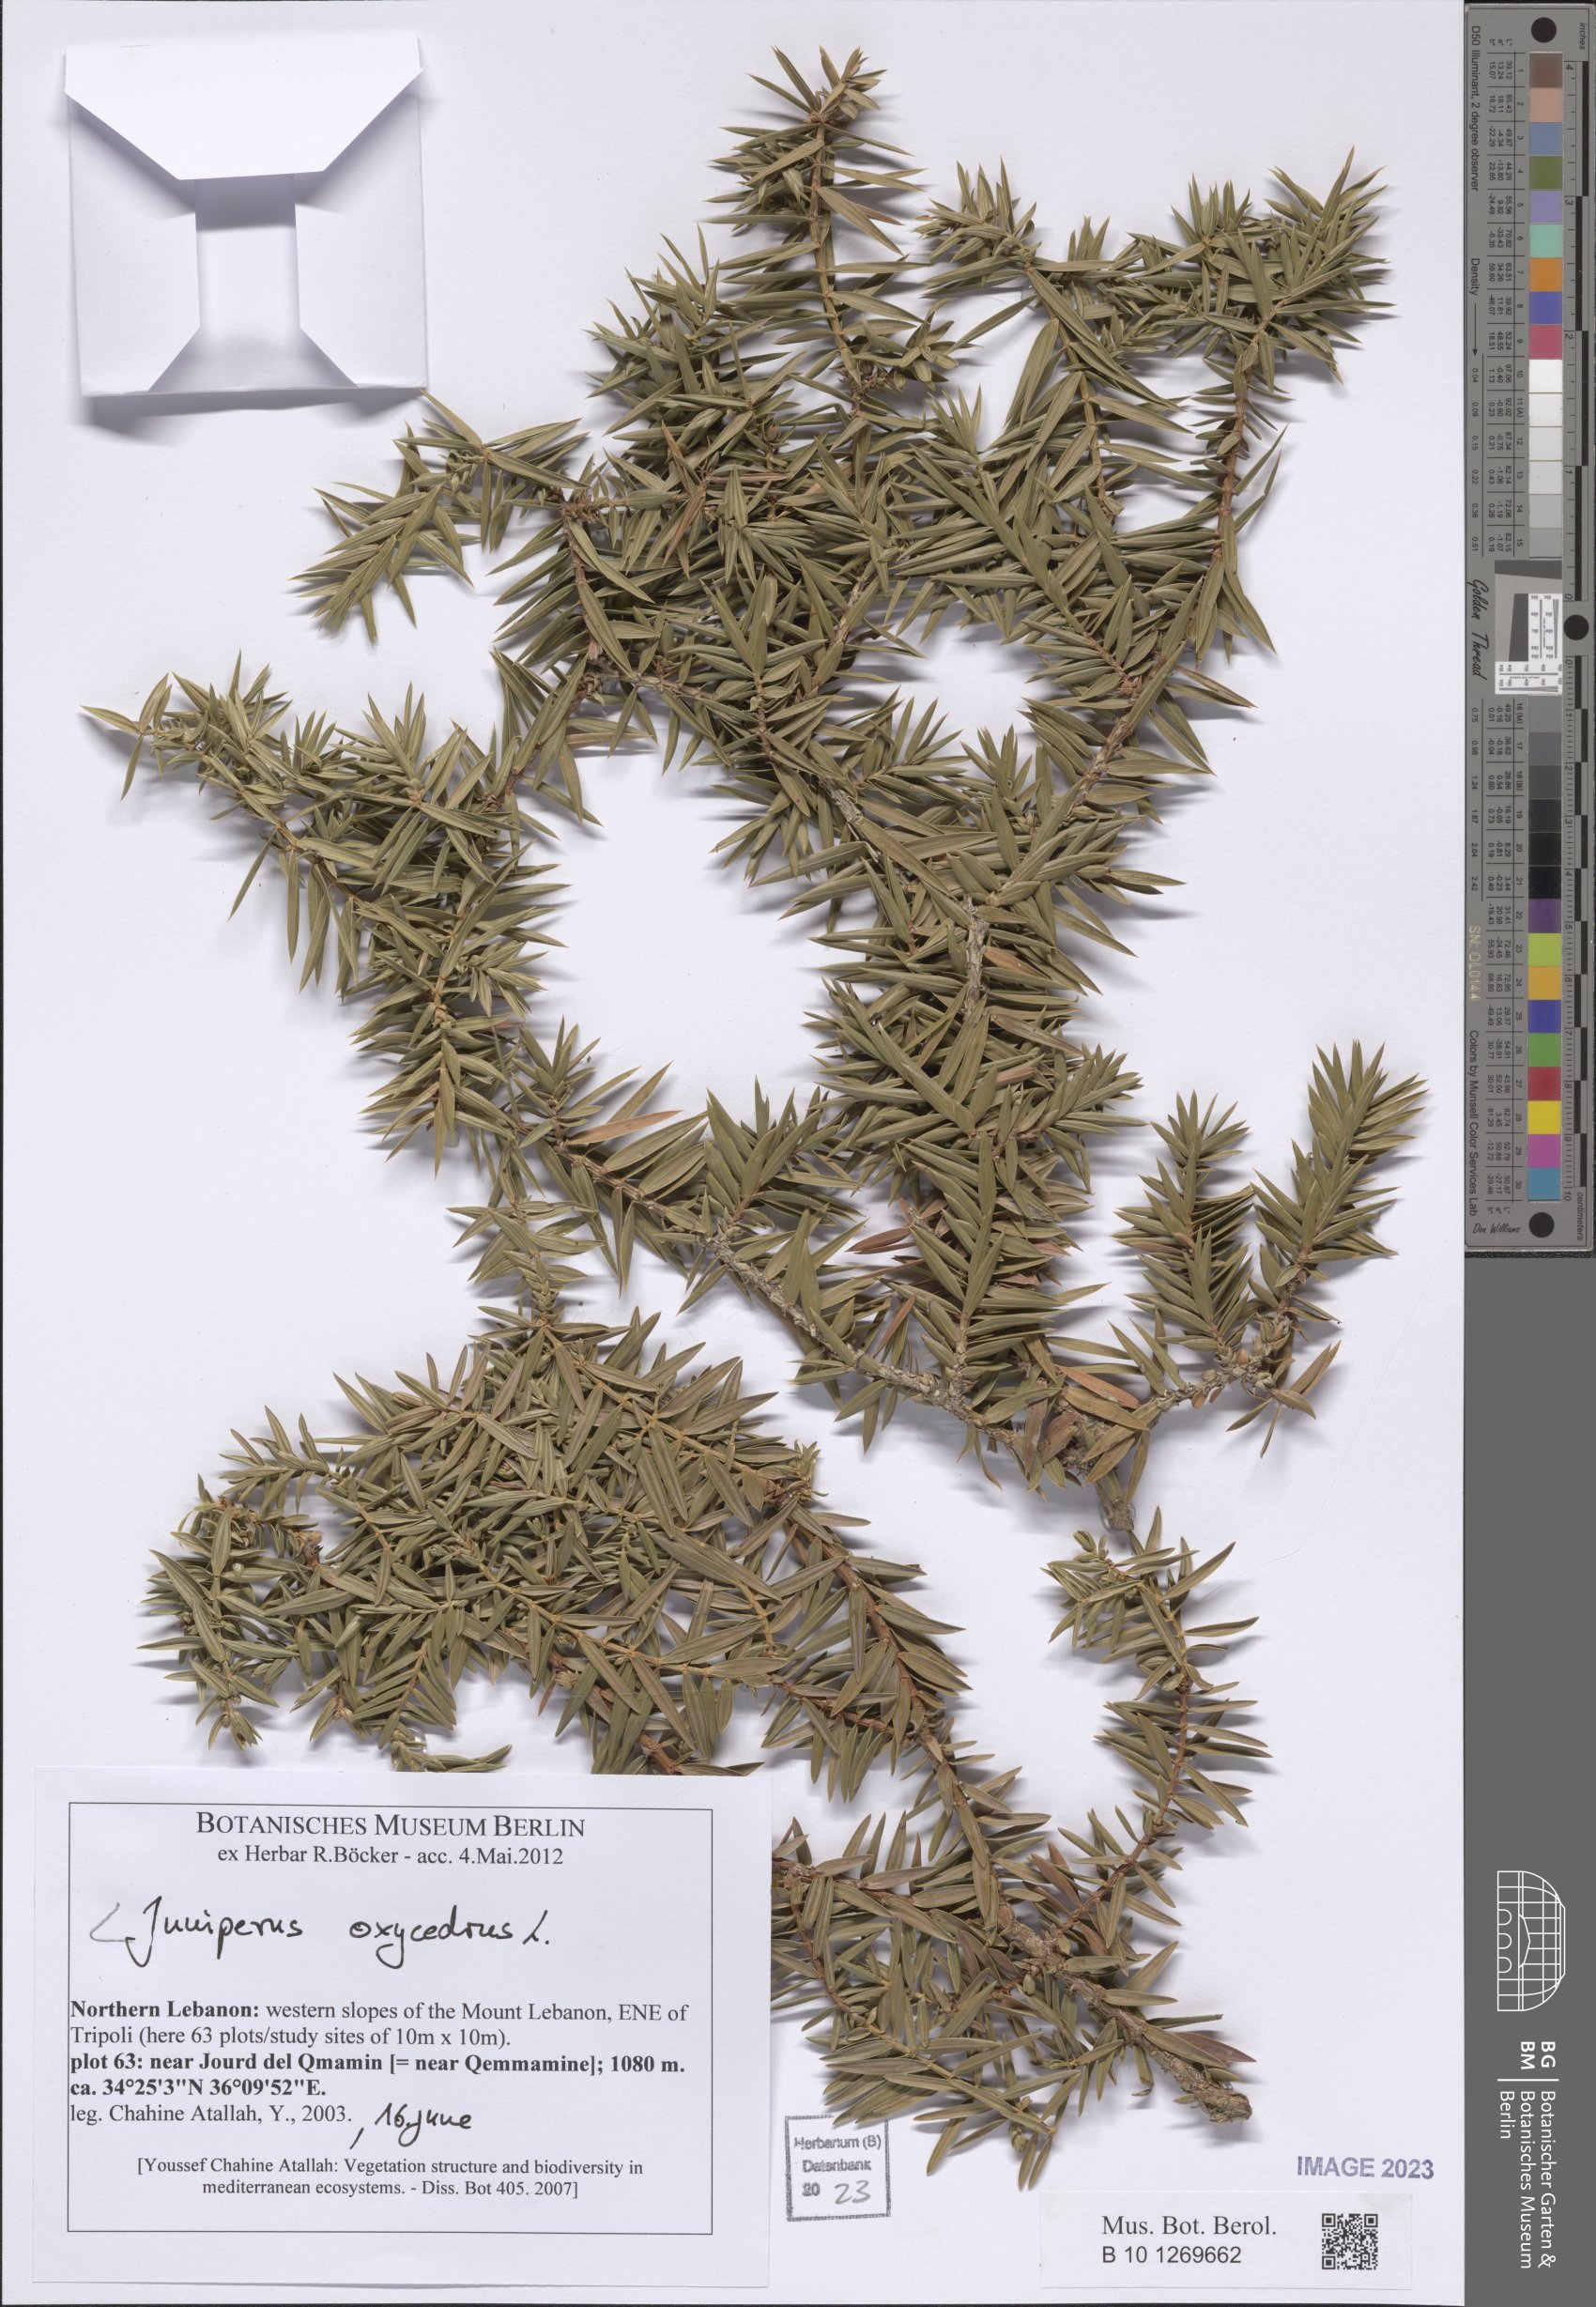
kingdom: Plantae
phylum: Tracheophyta
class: Pinopsida
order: Pinales
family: Cupressaceae
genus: Juniperus
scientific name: Juniperus oxycedrus
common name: Prickly juniper
